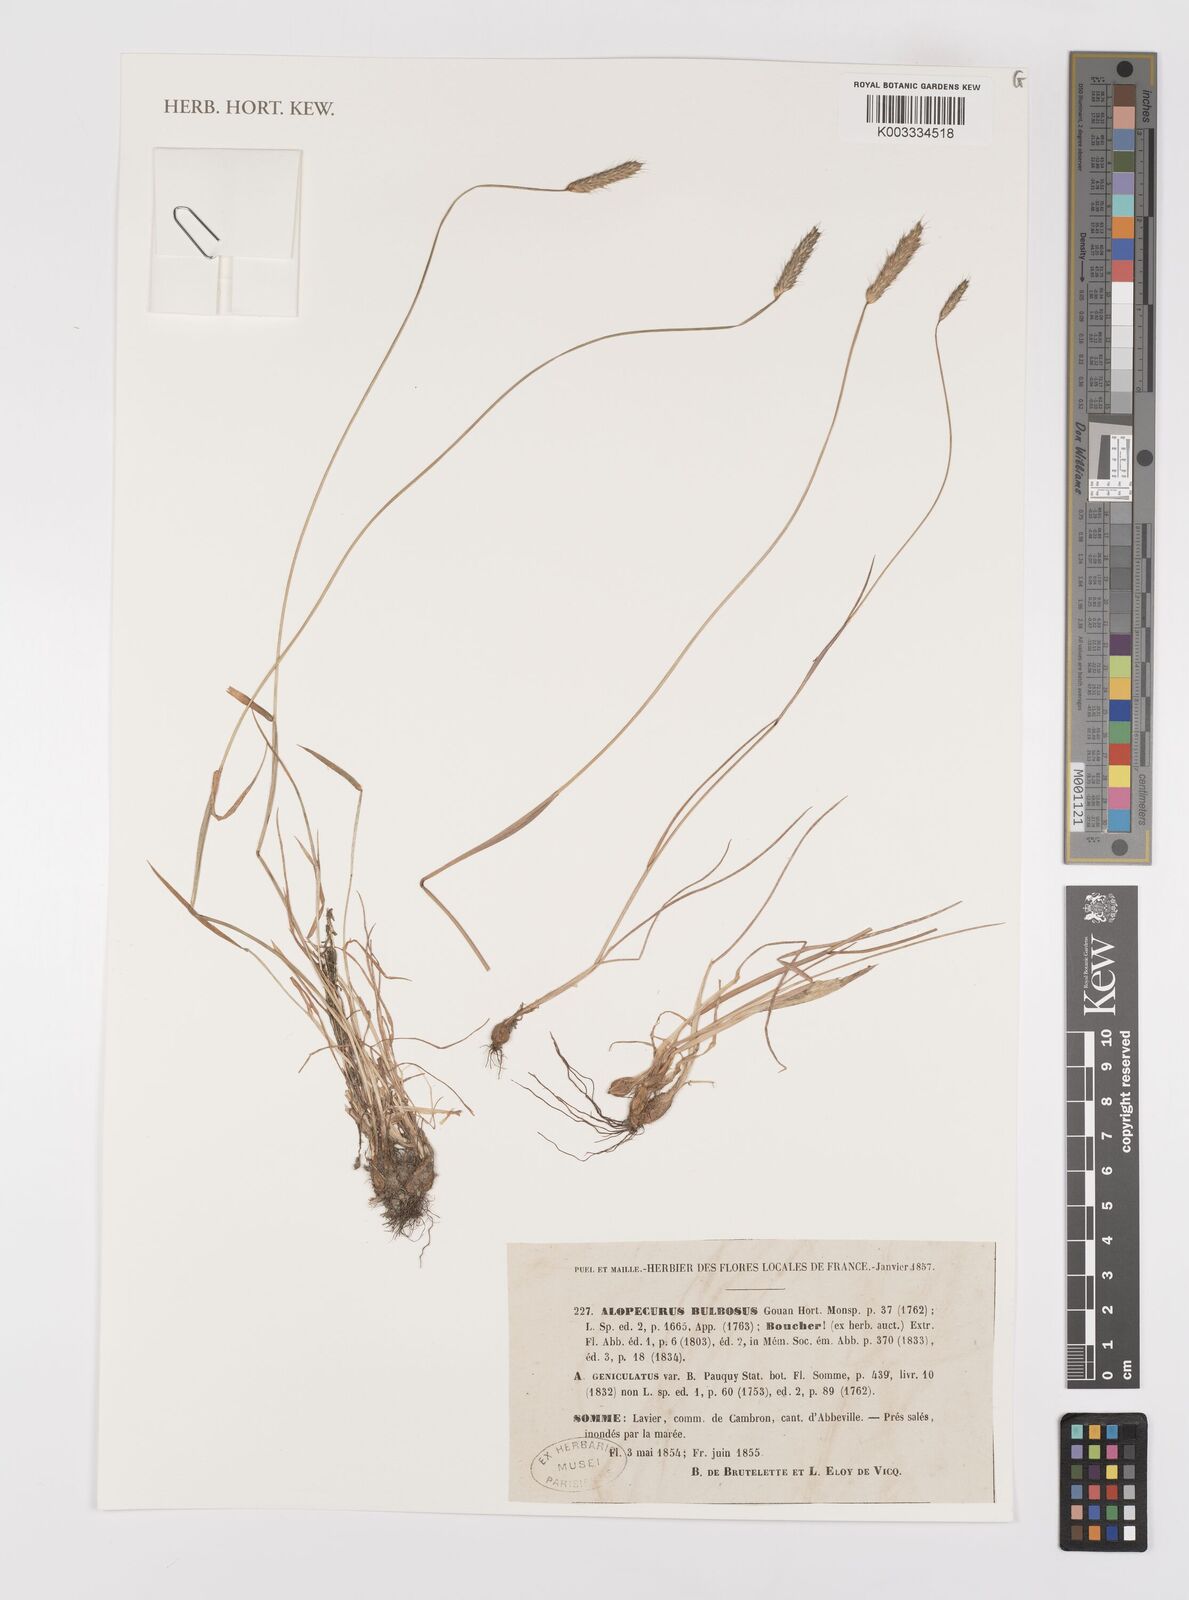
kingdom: Plantae
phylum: Tracheophyta
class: Liliopsida
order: Poales
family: Poaceae
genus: Alopecurus
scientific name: Alopecurus bulbosus
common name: Bulbous foxtail
